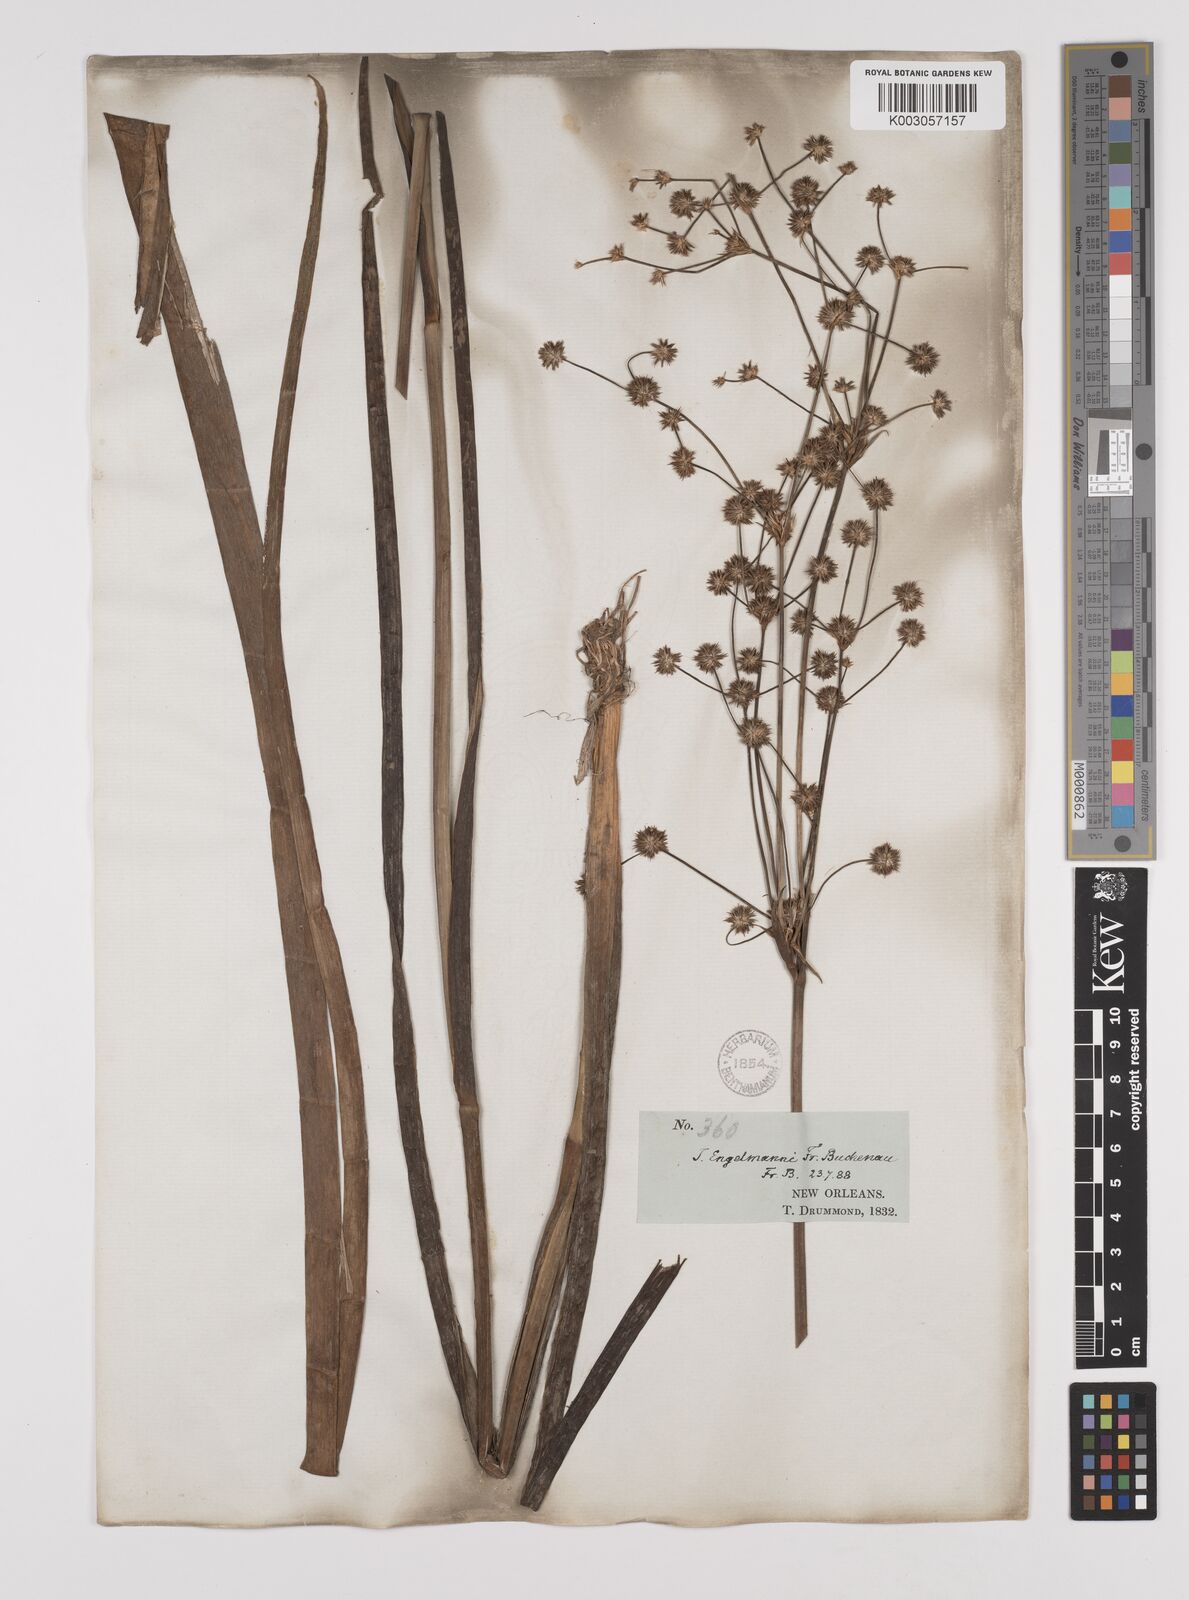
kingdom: Plantae
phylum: Tracheophyta
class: Liliopsida
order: Poales
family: Juncaceae
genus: Juncus
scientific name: Juncus articulatus
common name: Jointed rush
